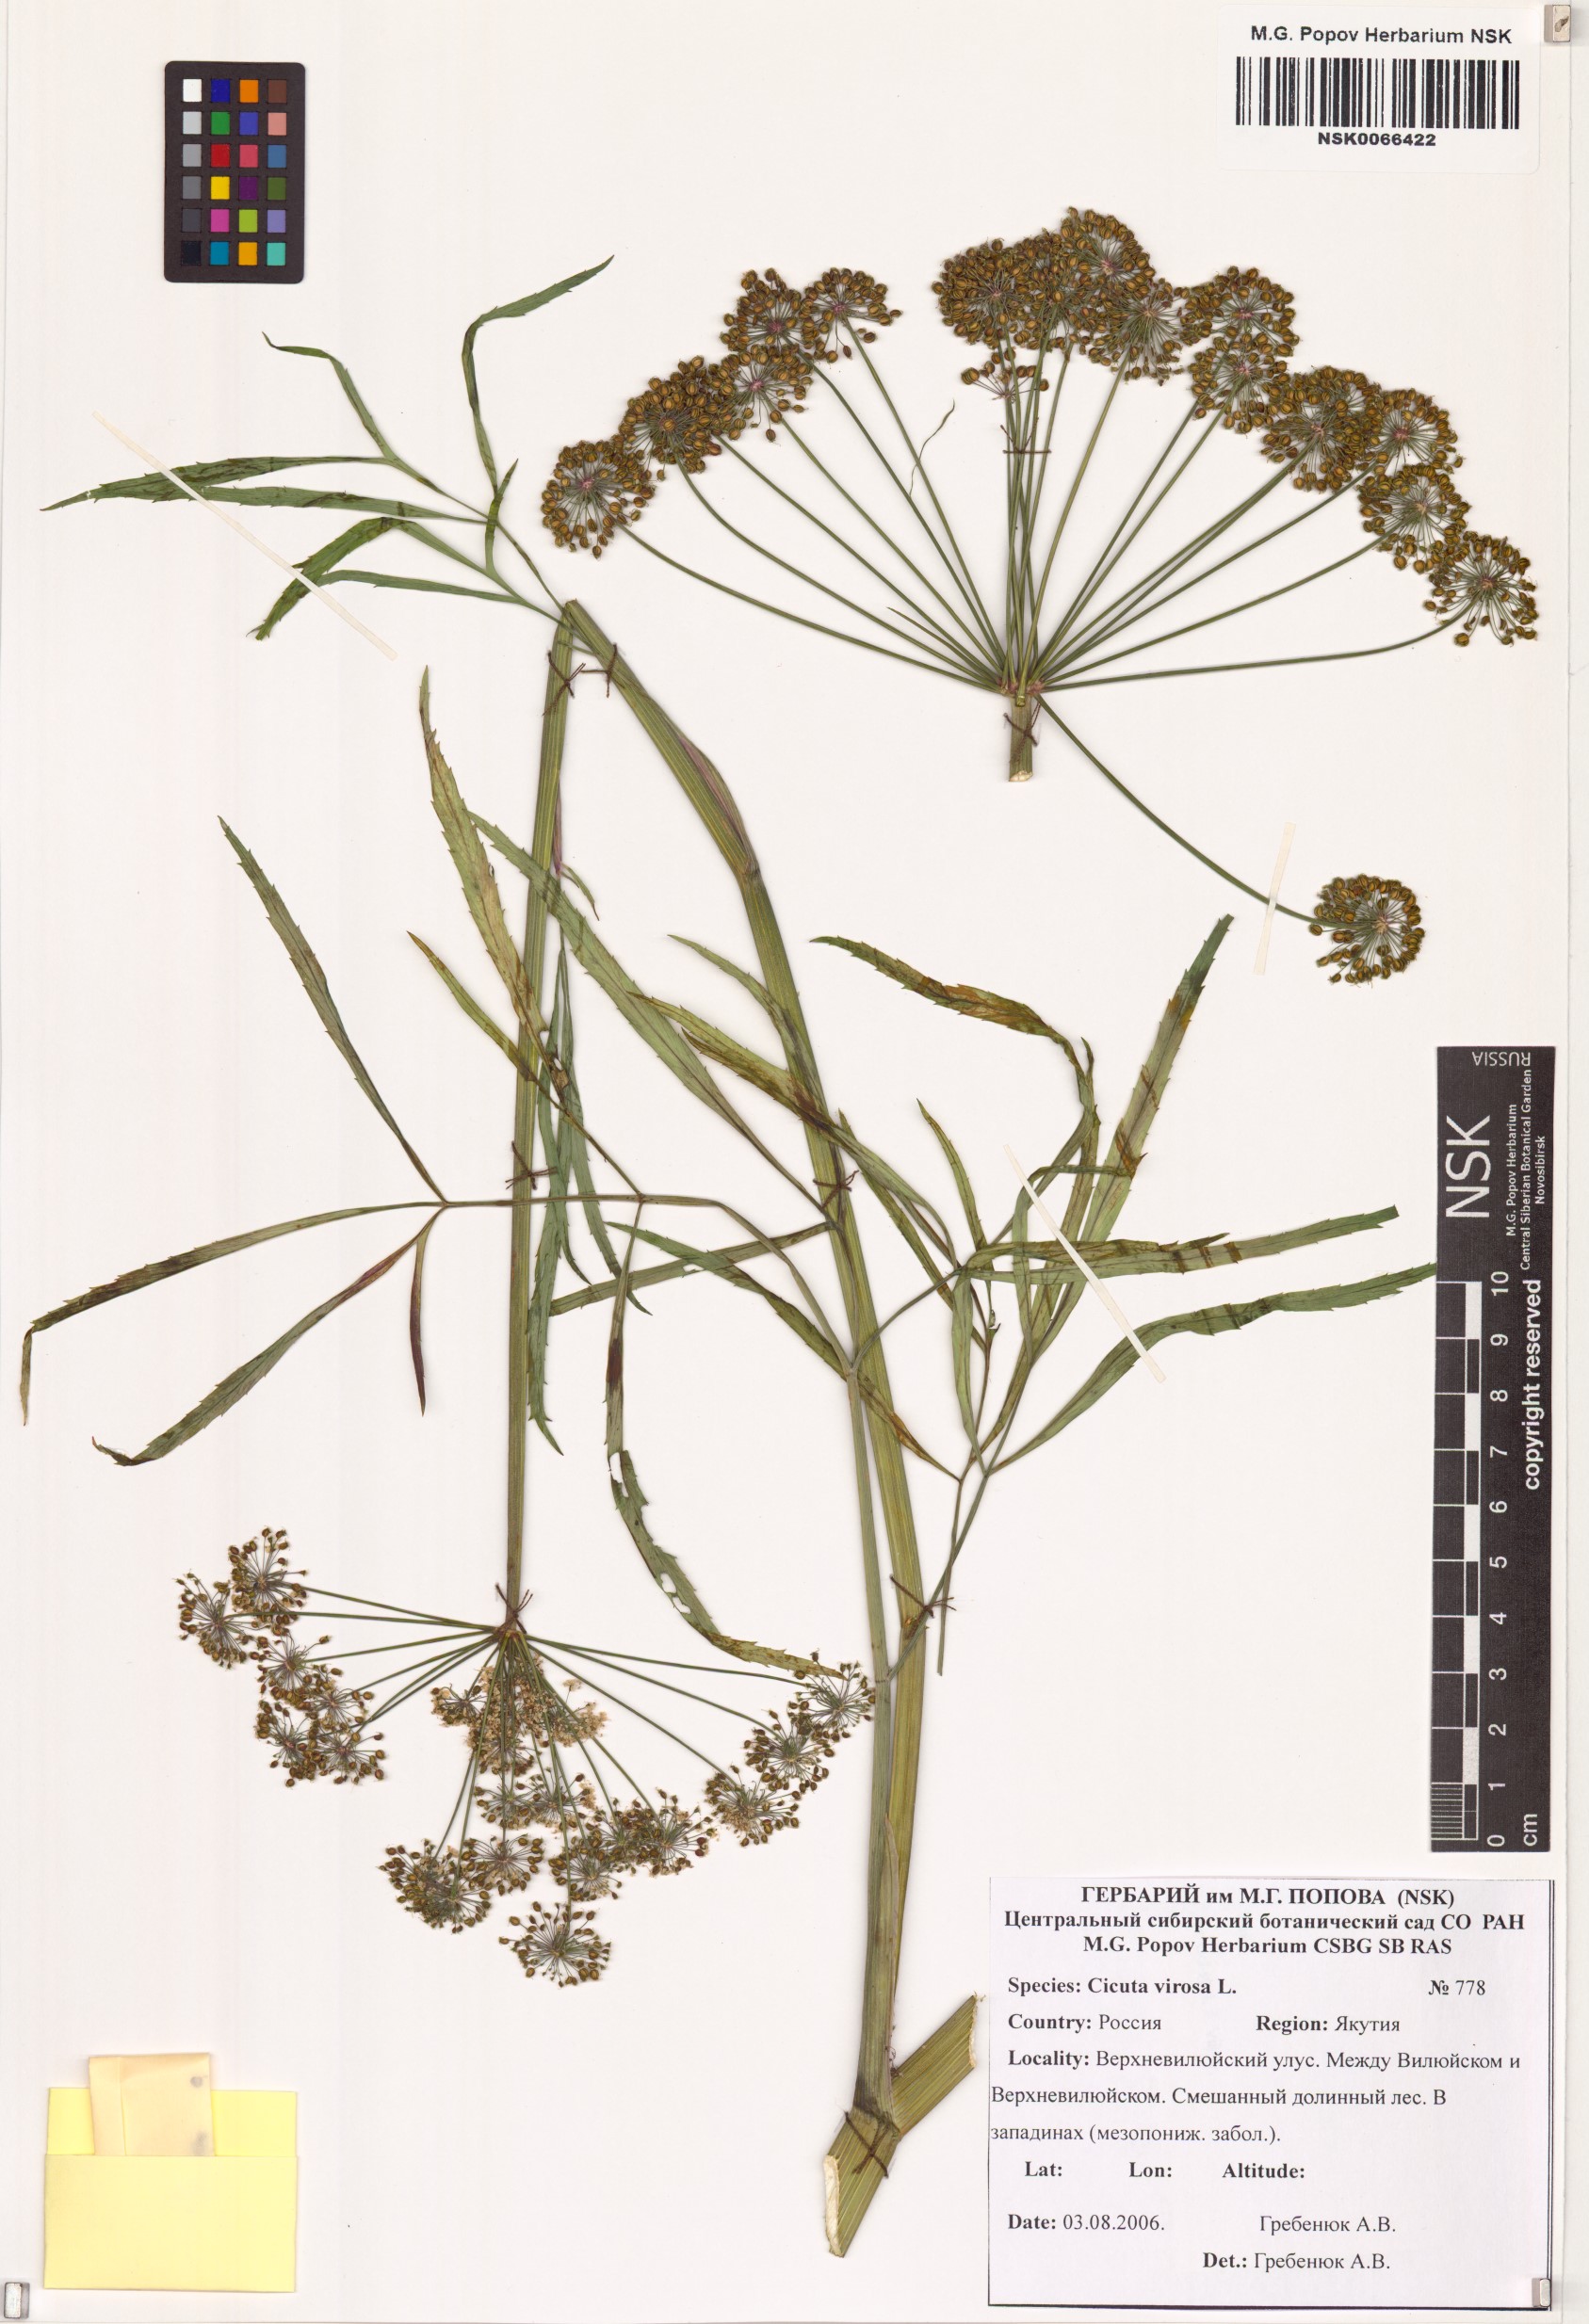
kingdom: Plantae
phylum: Tracheophyta
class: Magnoliopsida
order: Apiales
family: Apiaceae
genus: Cicuta
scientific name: Cicuta virosa
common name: Cowbane
